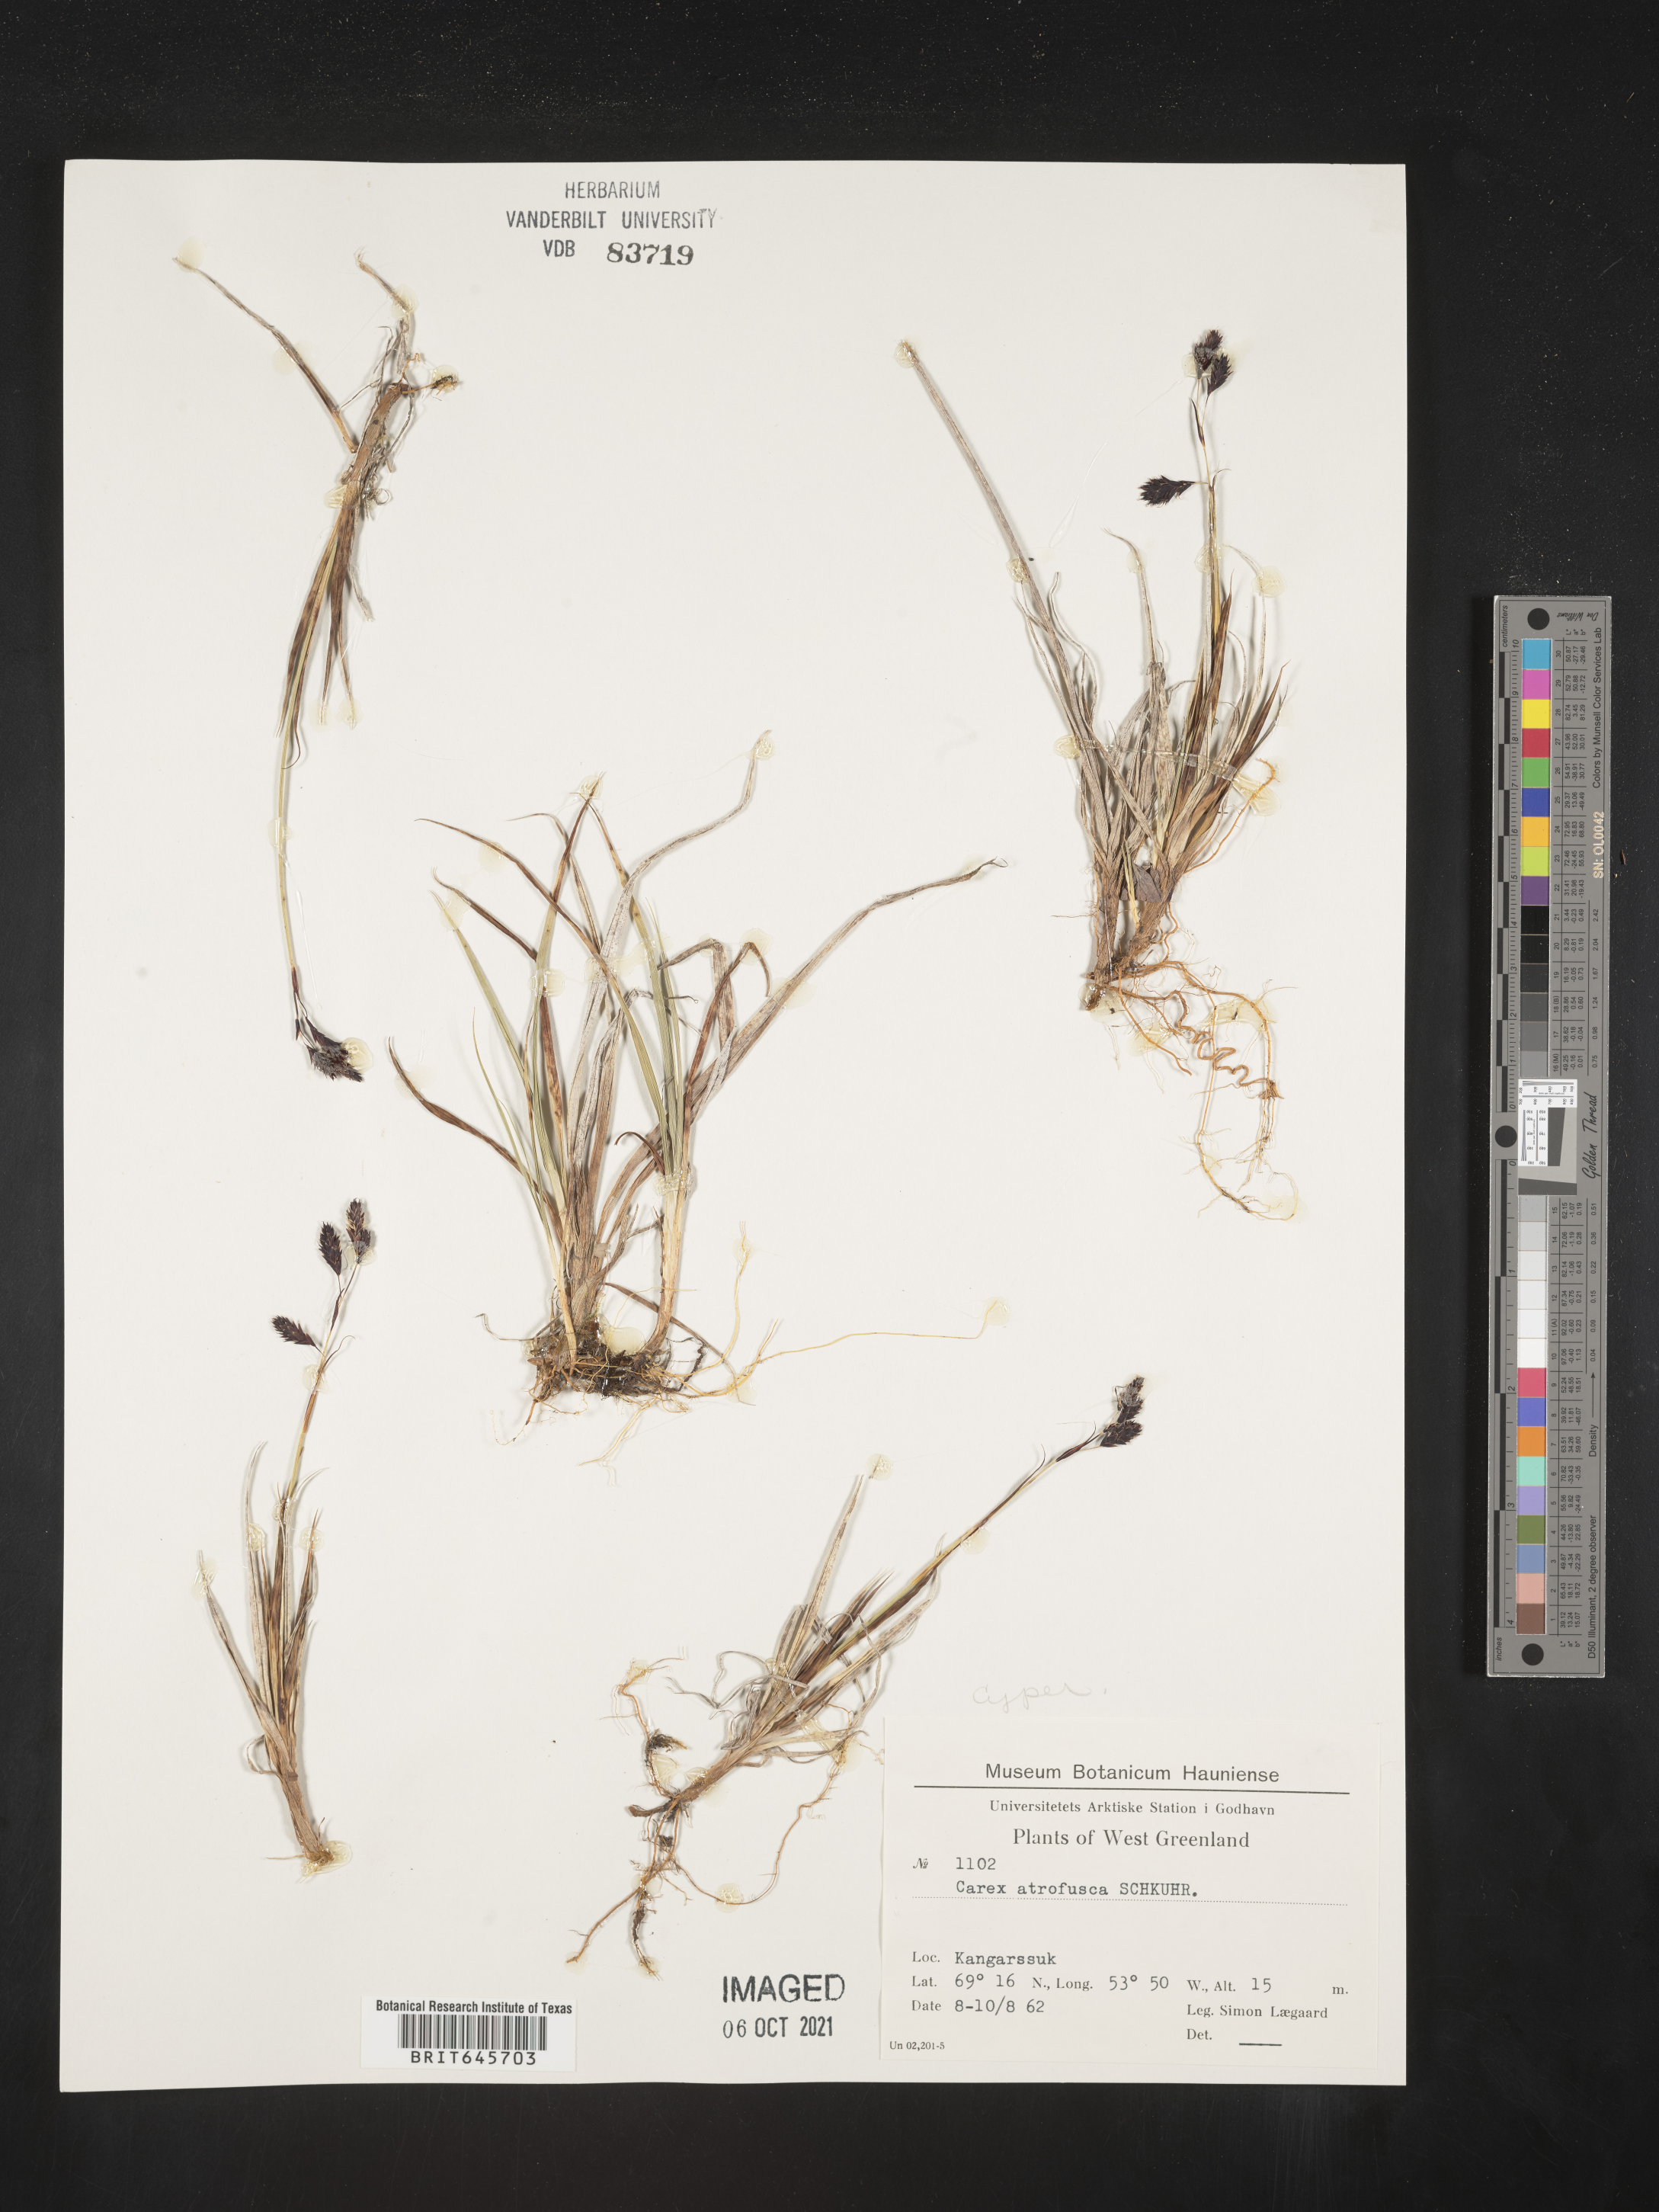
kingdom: Plantae
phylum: Tracheophyta
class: Liliopsida
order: Poales
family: Cyperaceae
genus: Carex
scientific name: Carex pichinchensis
